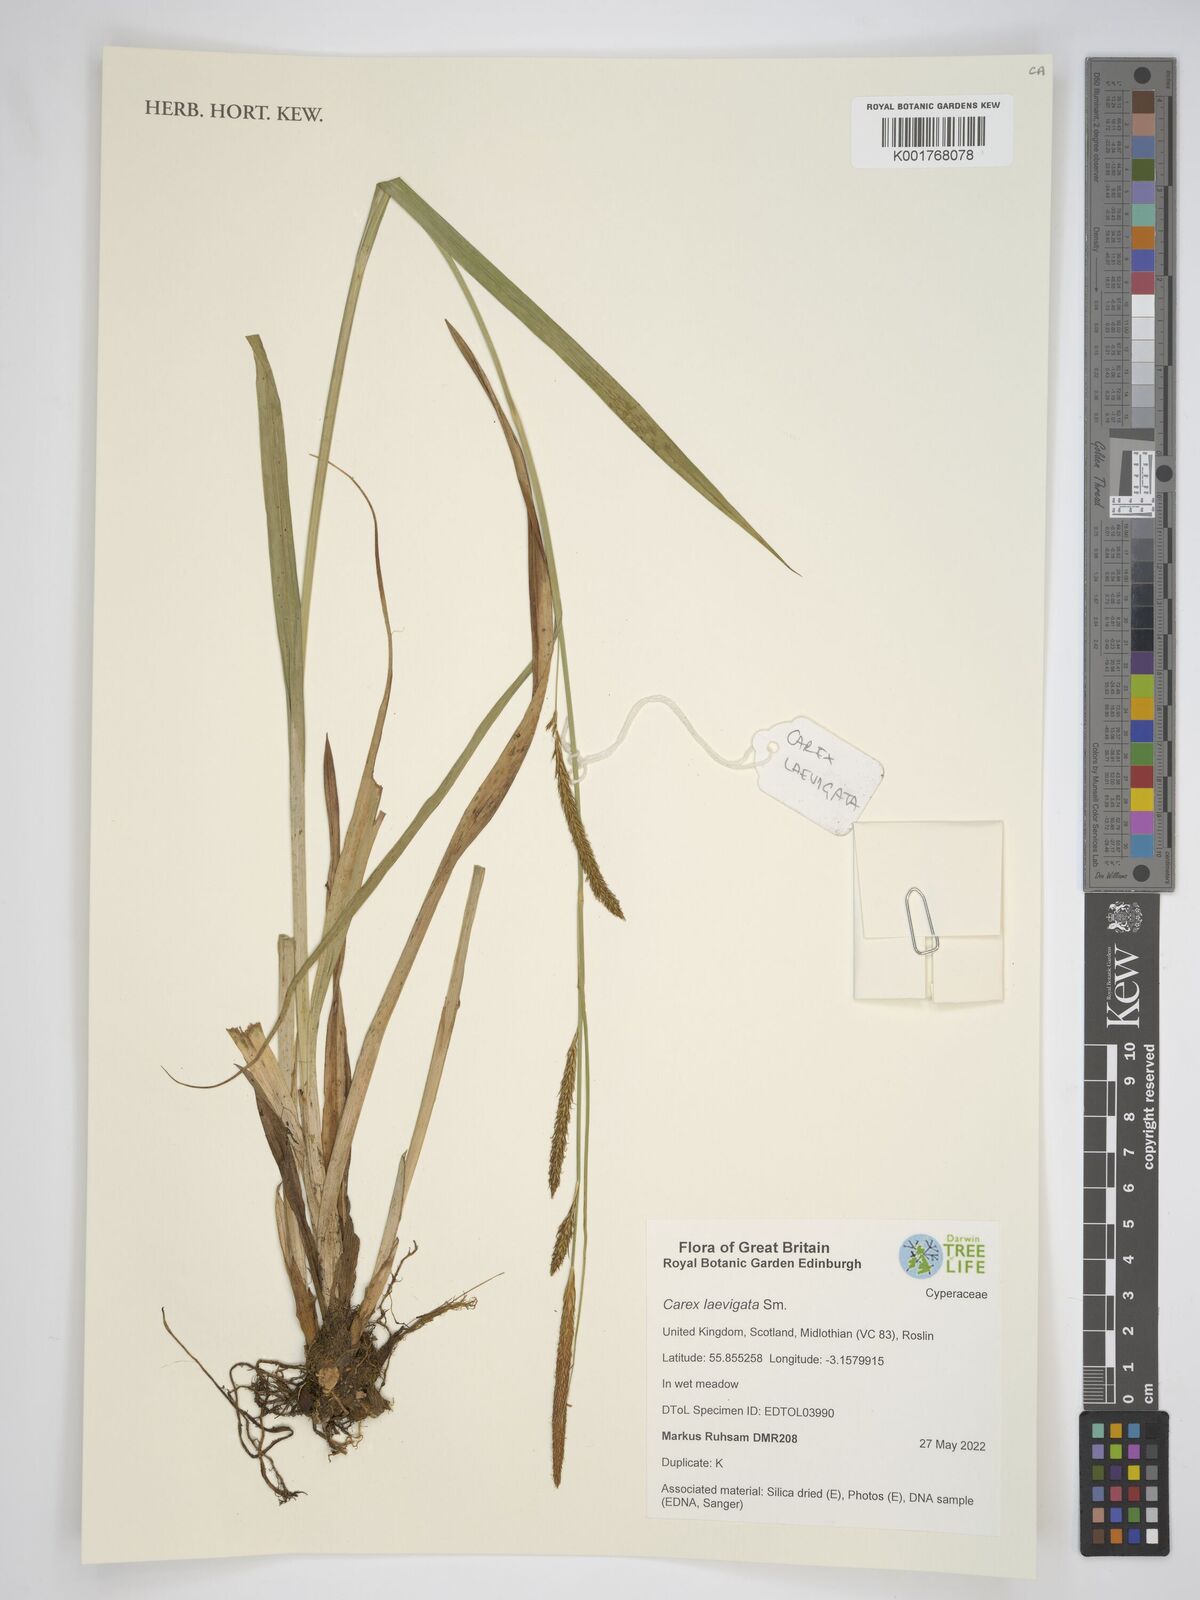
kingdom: Plantae
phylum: Tracheophyta
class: Liliopsida
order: Poales
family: Cyperaceae
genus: Carex
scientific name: Carex laevigata
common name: Smooth-stalked sedge
